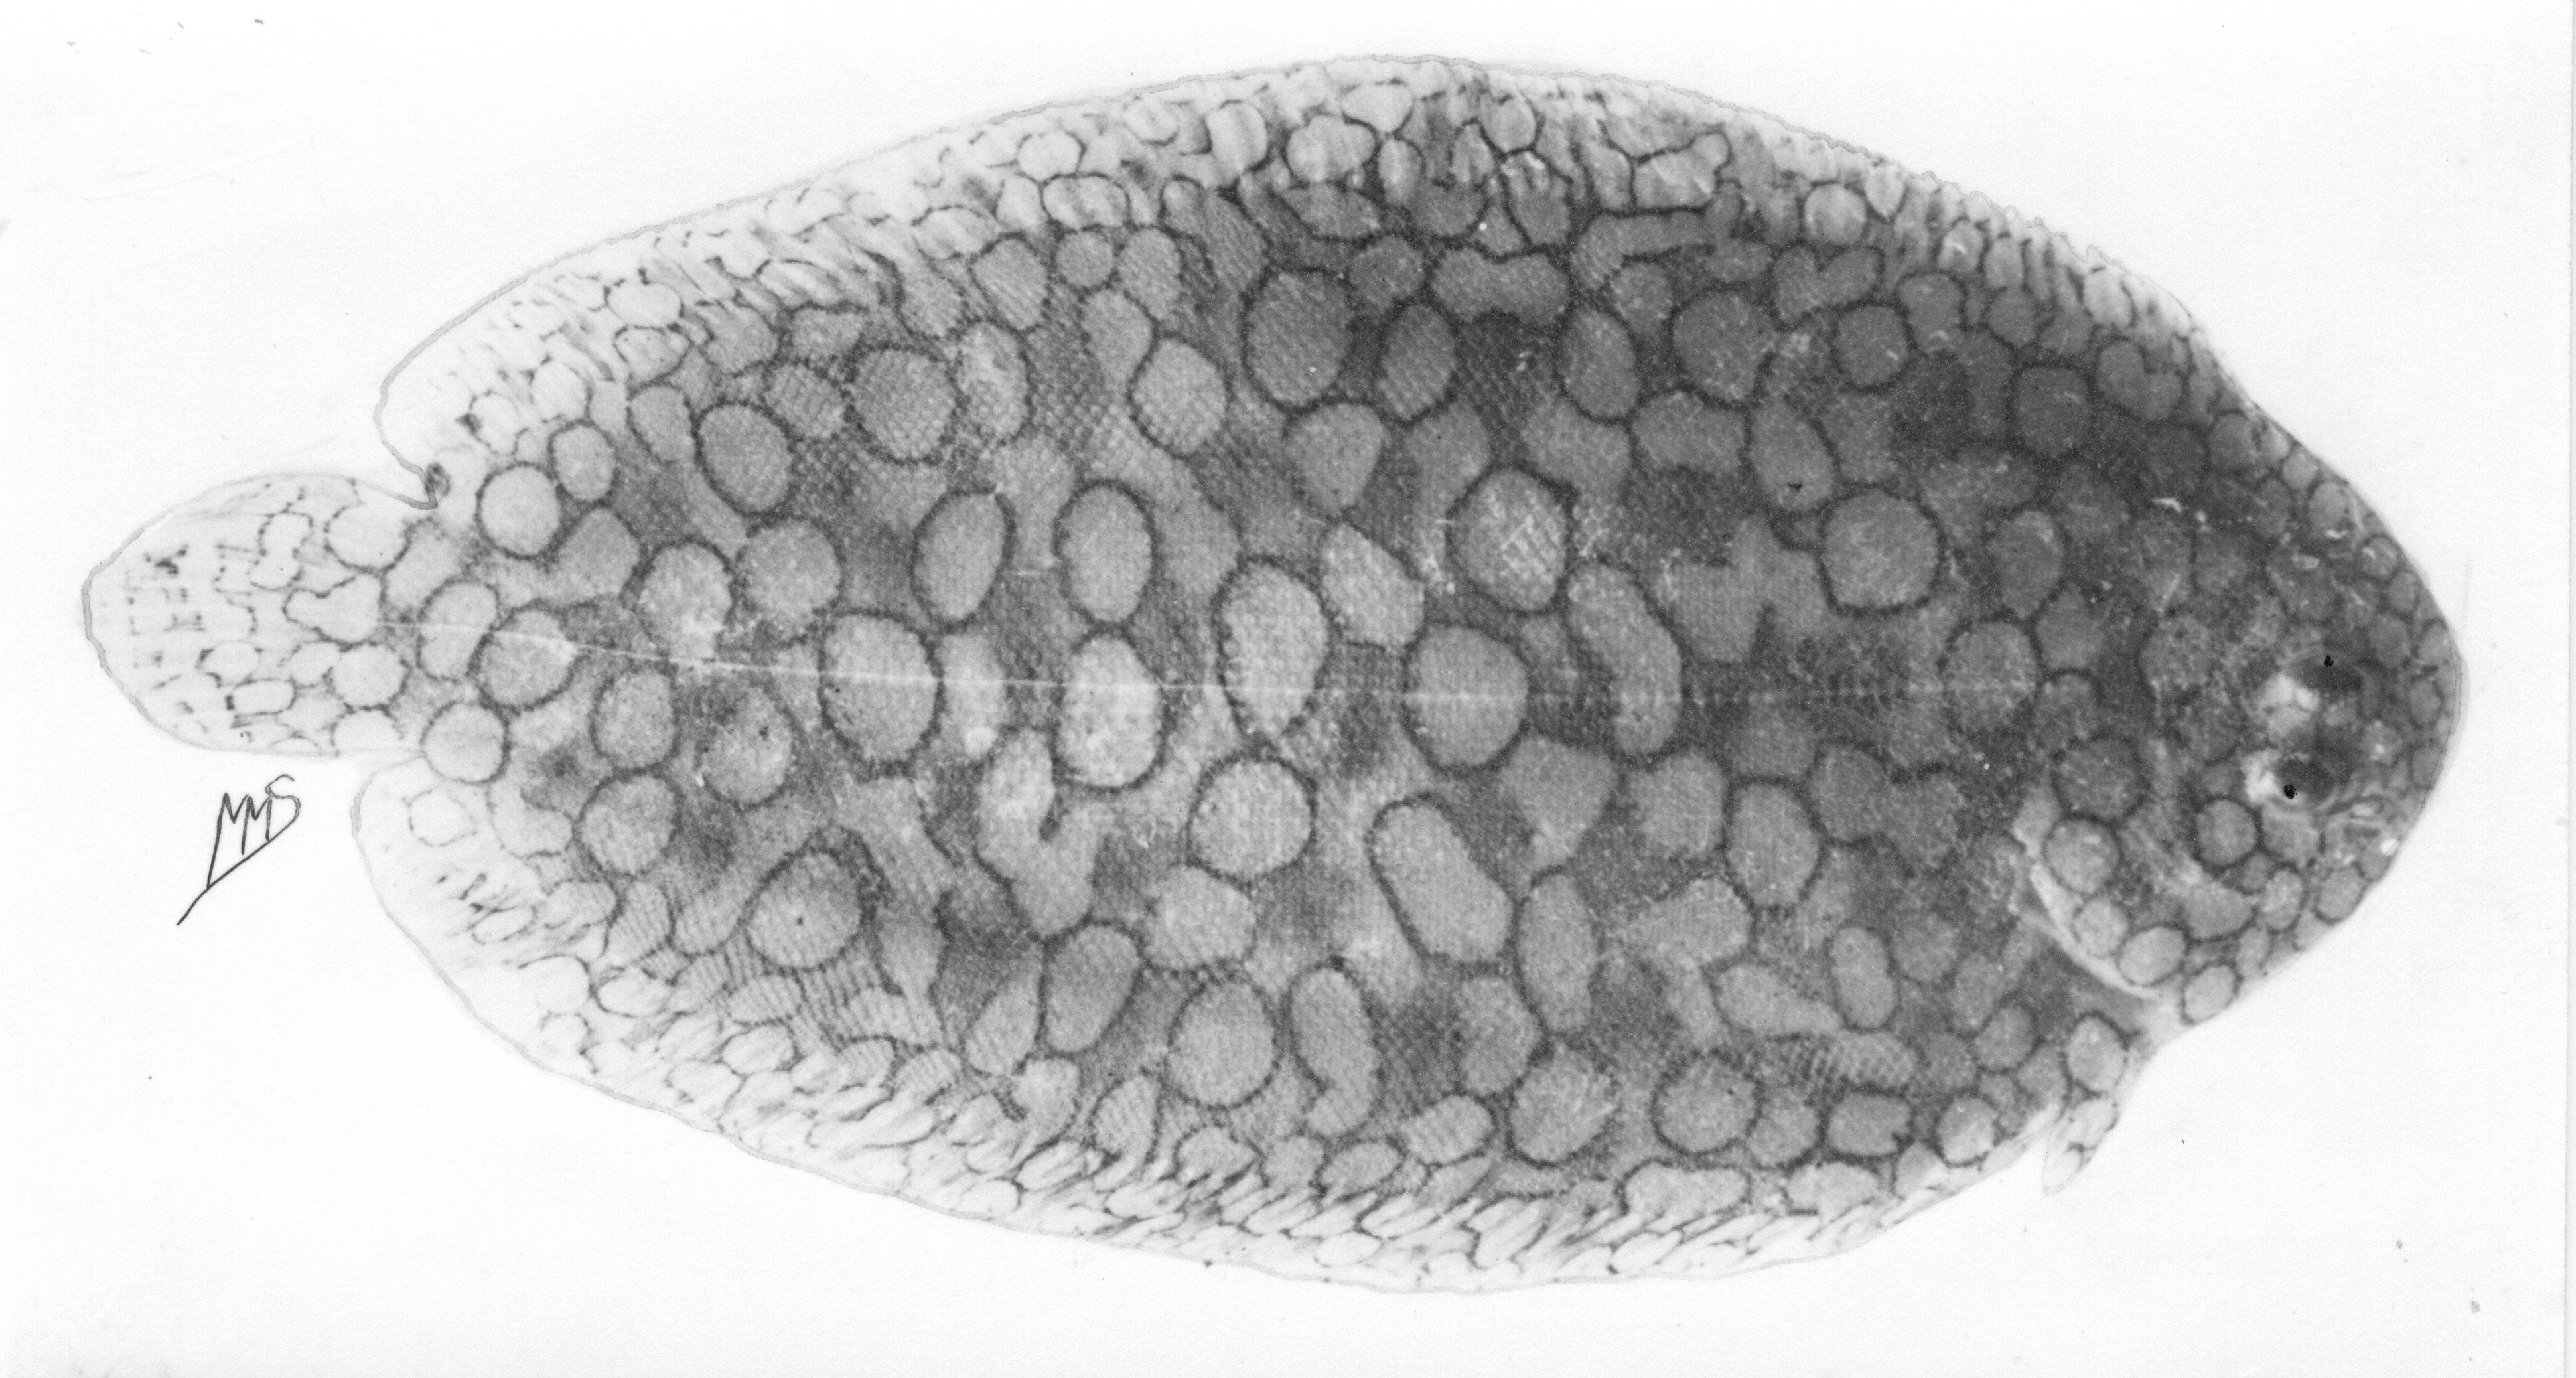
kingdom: Animalia
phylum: Chordata
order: Pleuronectiformes
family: Soleidae
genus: Pardachirus
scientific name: Pardachirus morrowi
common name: Persian carpet sole
